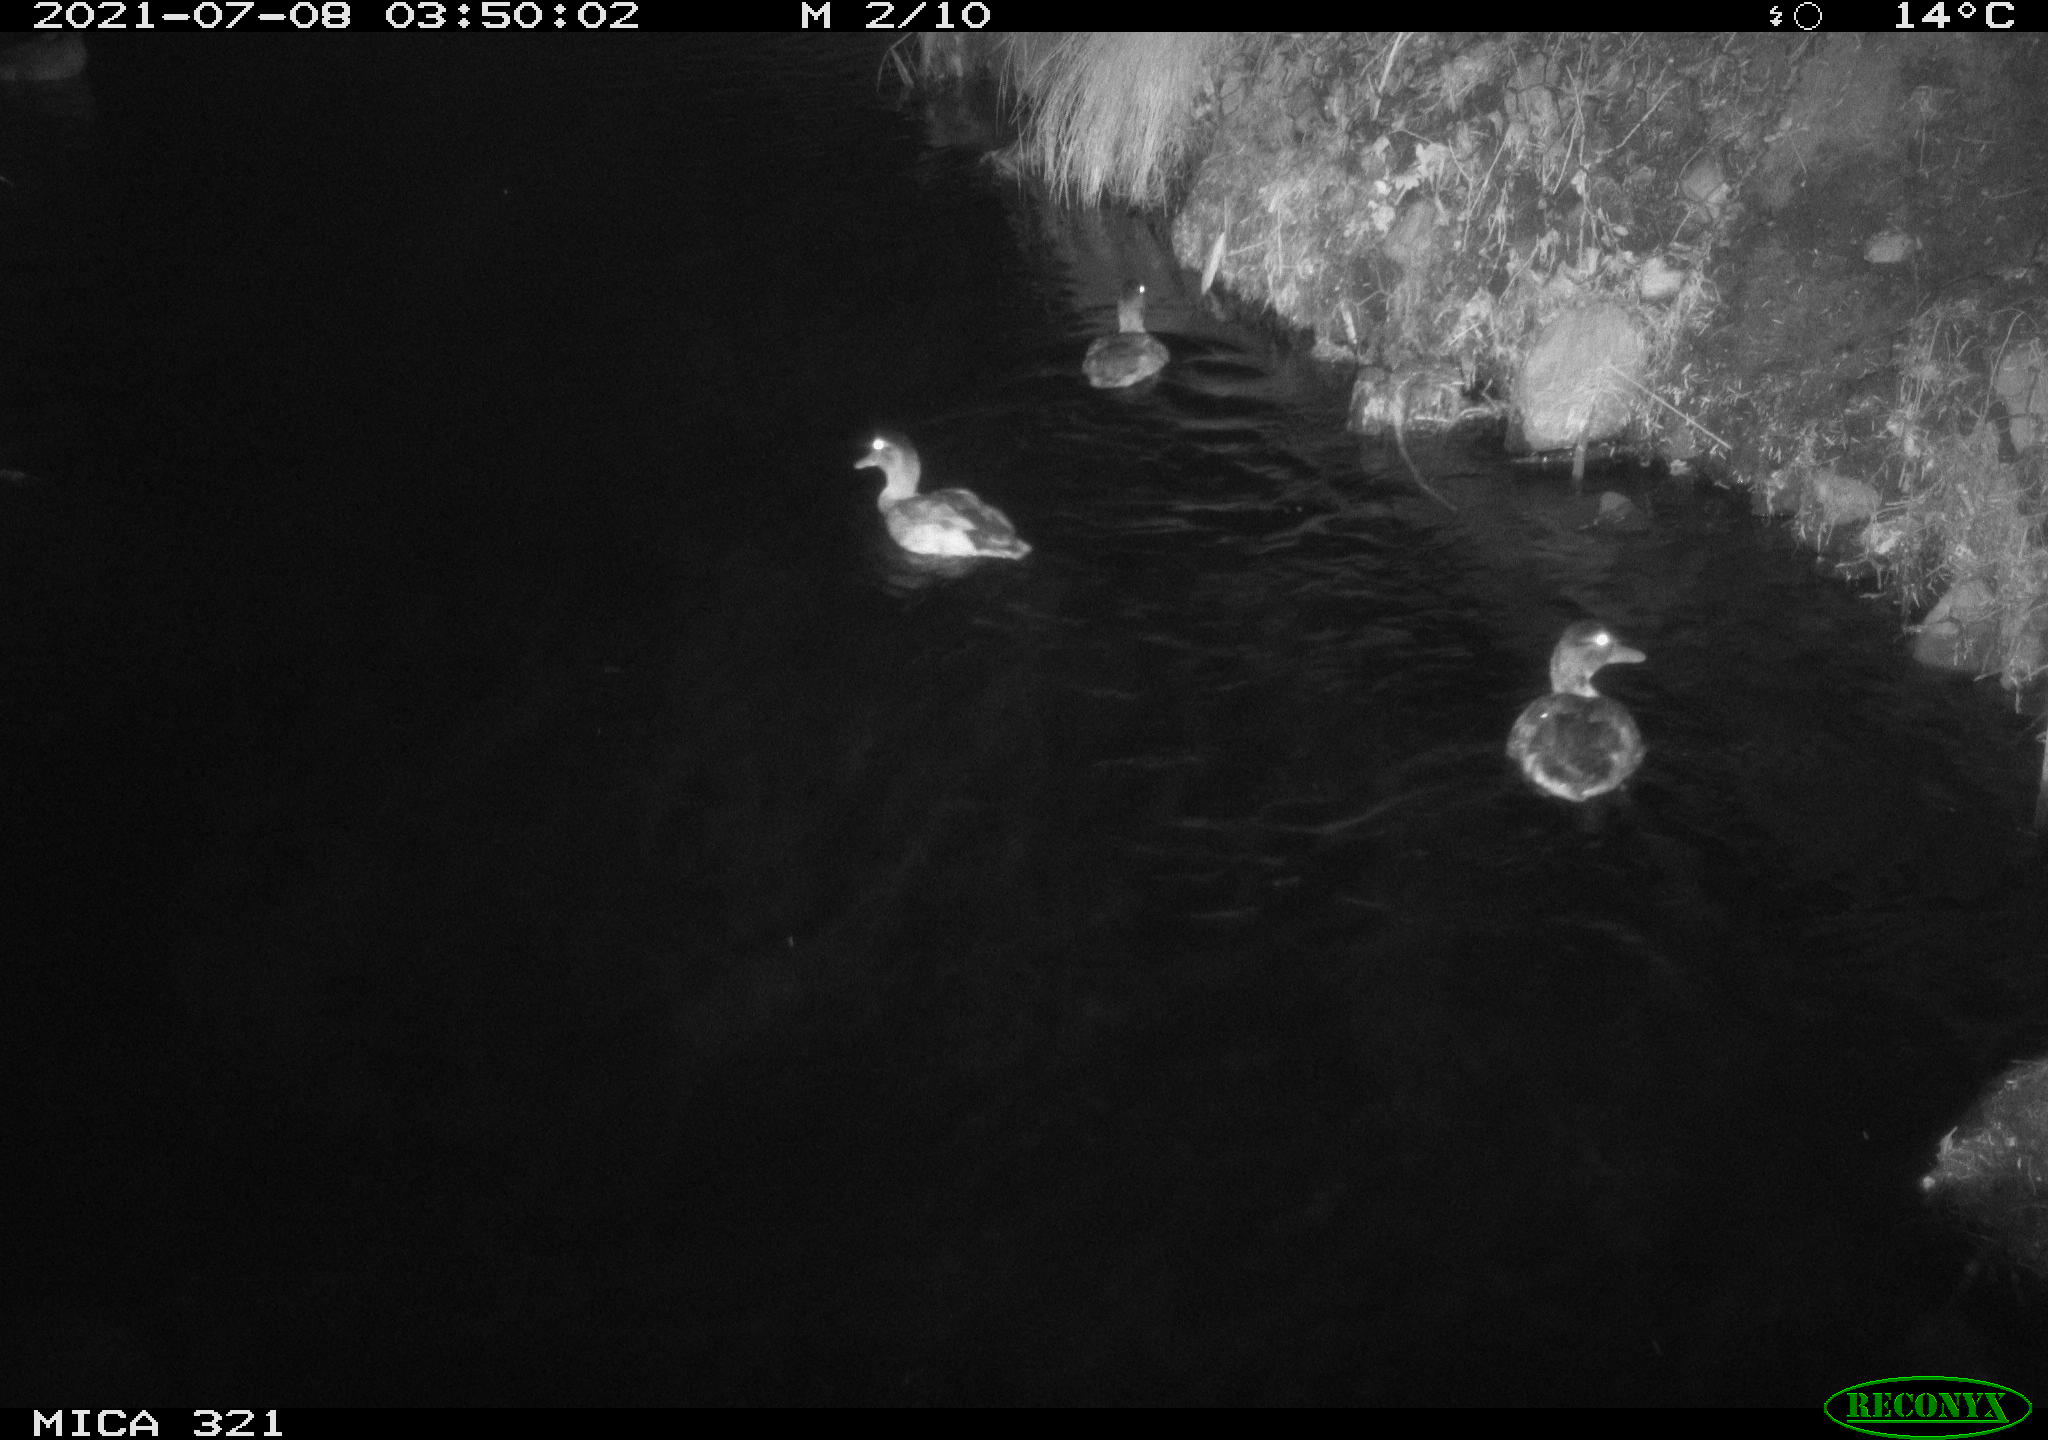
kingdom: Animalia
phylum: Chordata
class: Aves
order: Anseriformes
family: Anatidae
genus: Anas
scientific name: Anas platyrhynchos
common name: Mallard
